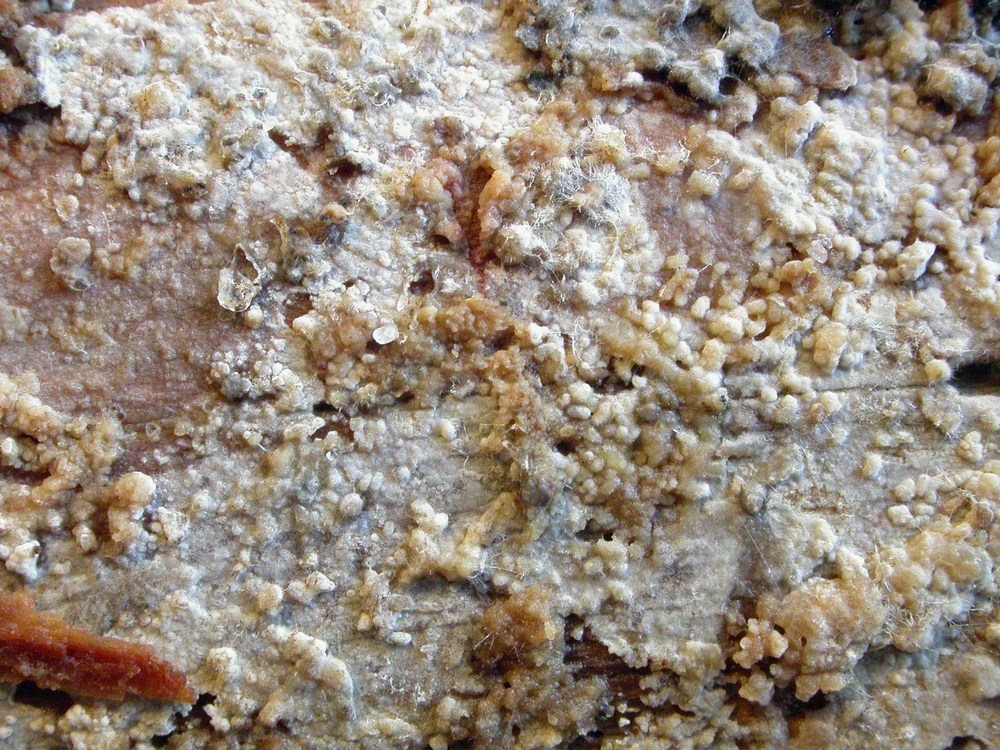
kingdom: Fungi
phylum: Basidiomycota
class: Agaricomycetes
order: Hymenochaetales
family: Hyphodontiaceae
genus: Hyphodontia
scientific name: Hyphodontia pallidula
